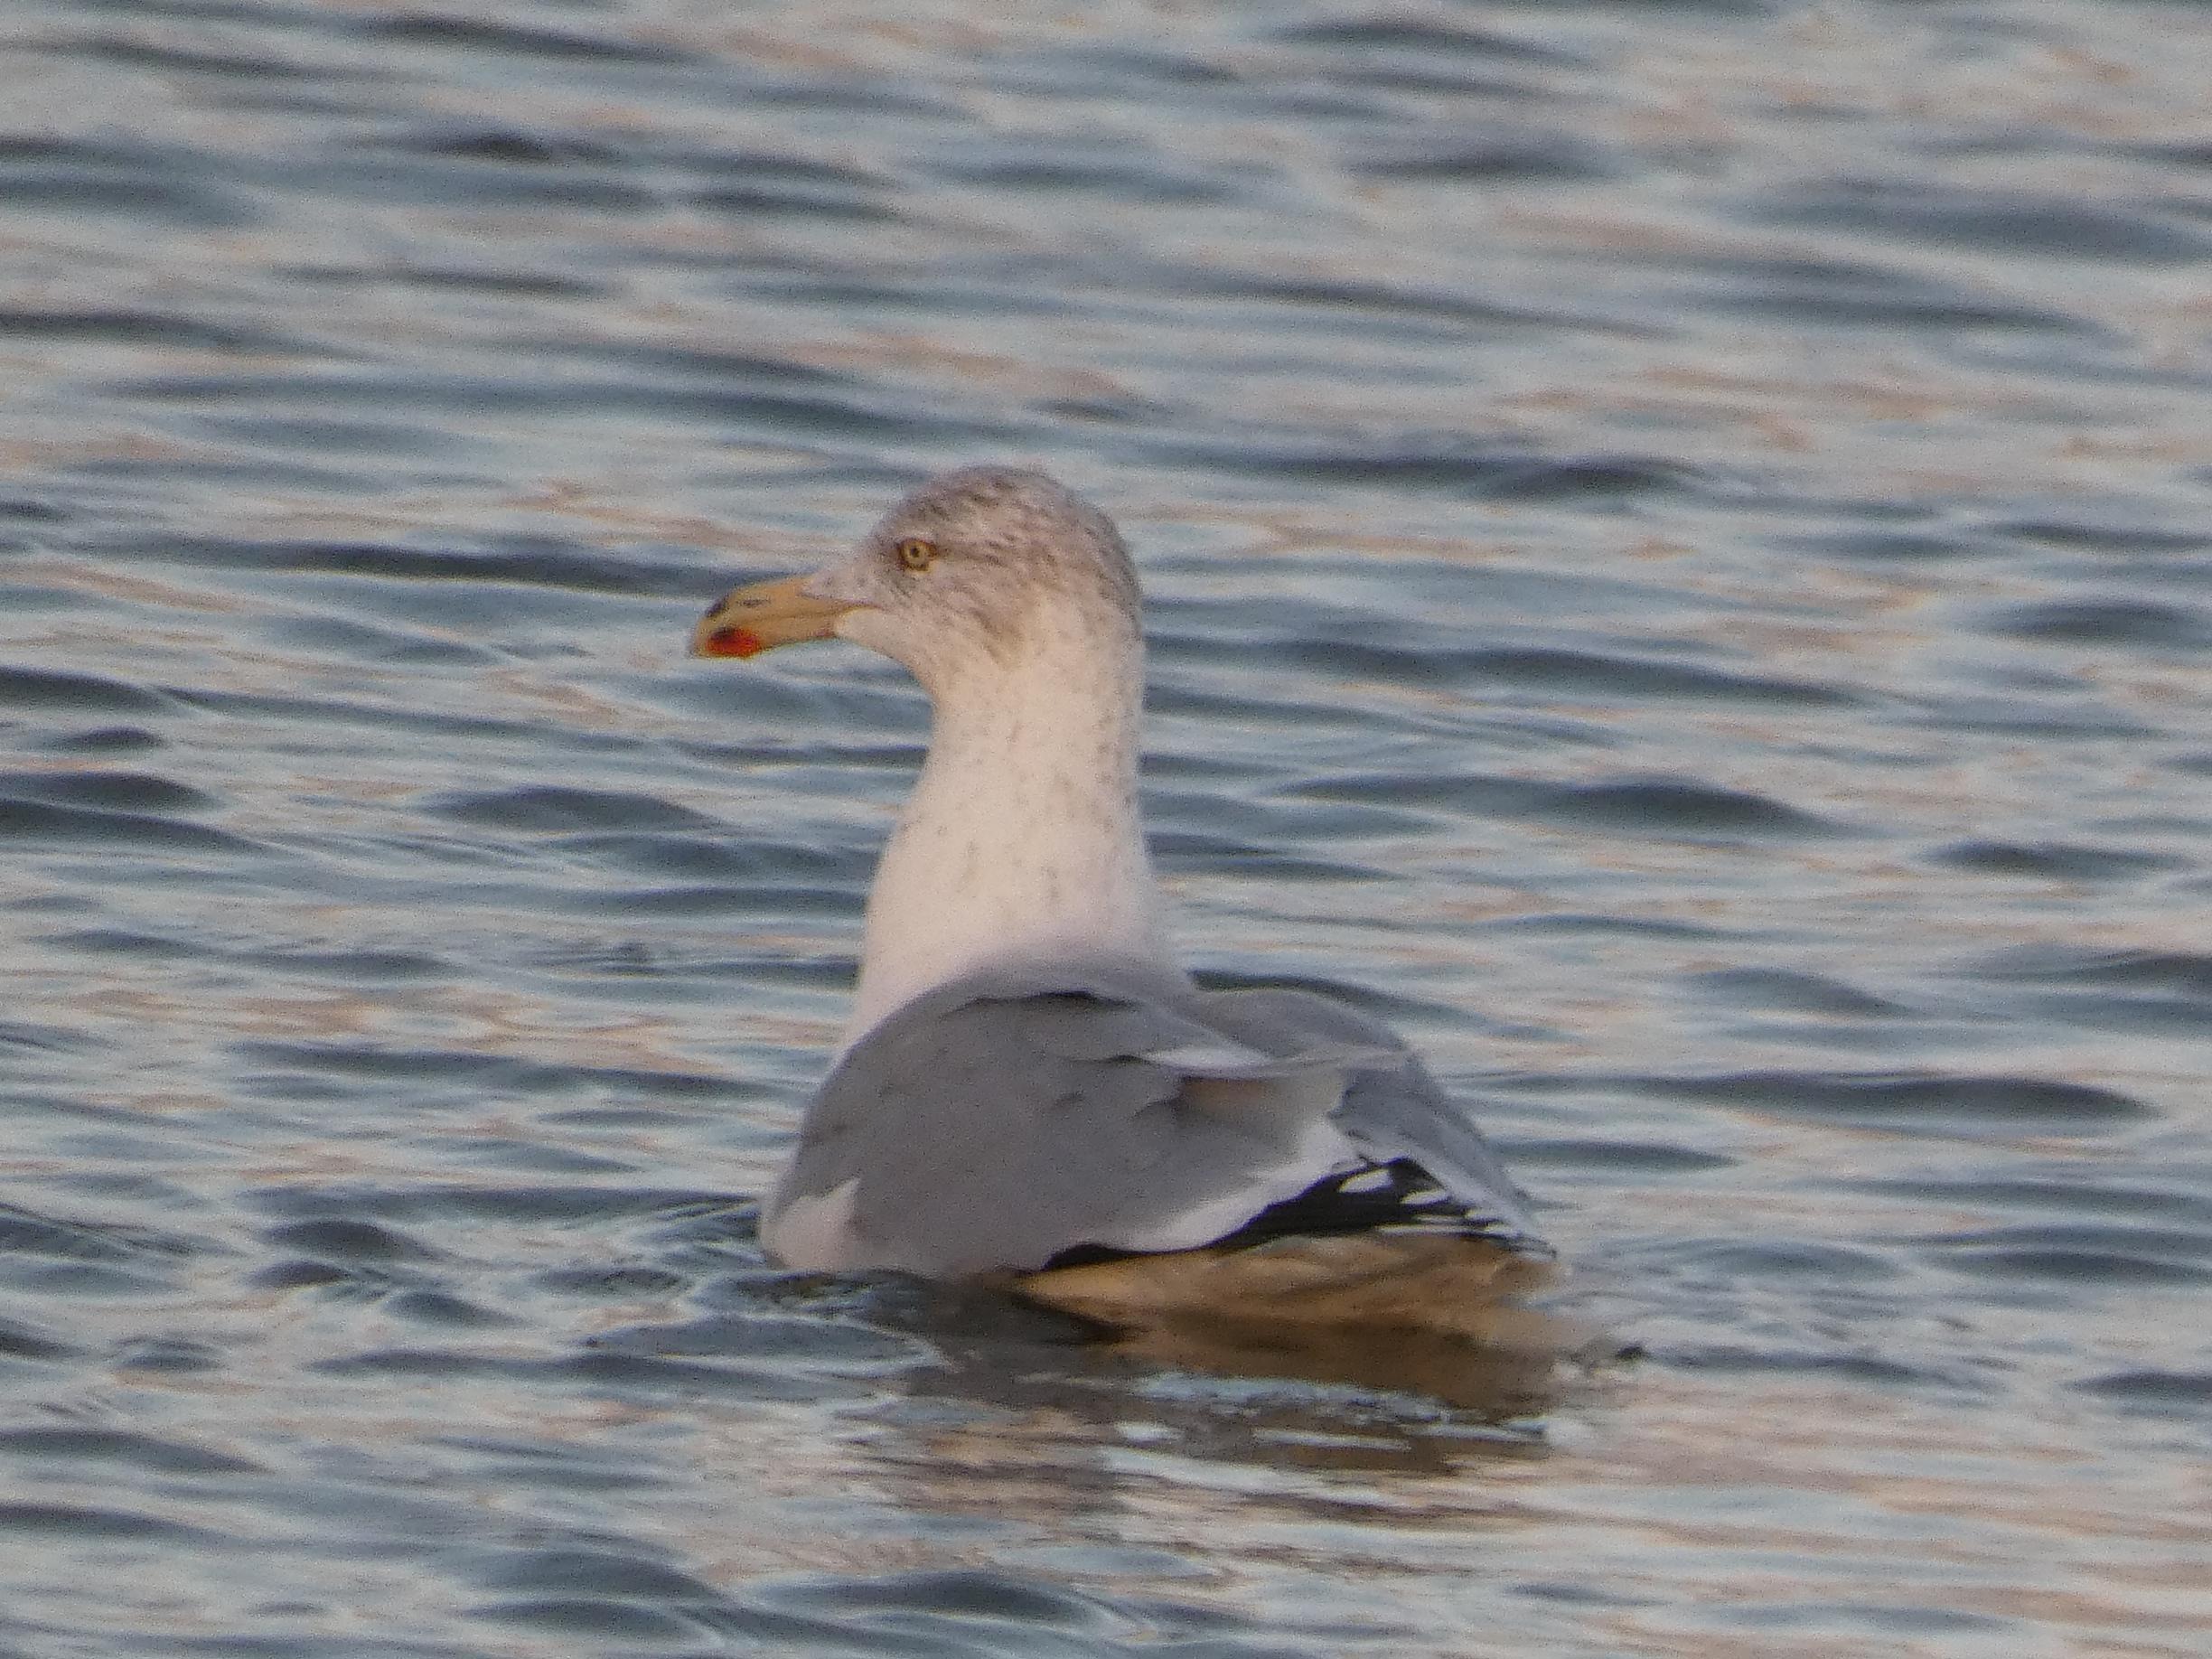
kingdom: Animalia
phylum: Chordata
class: Aves
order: Charadriiformes
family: Laridae
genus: Larus
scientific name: Larus argentatus
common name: Sølvmåge
